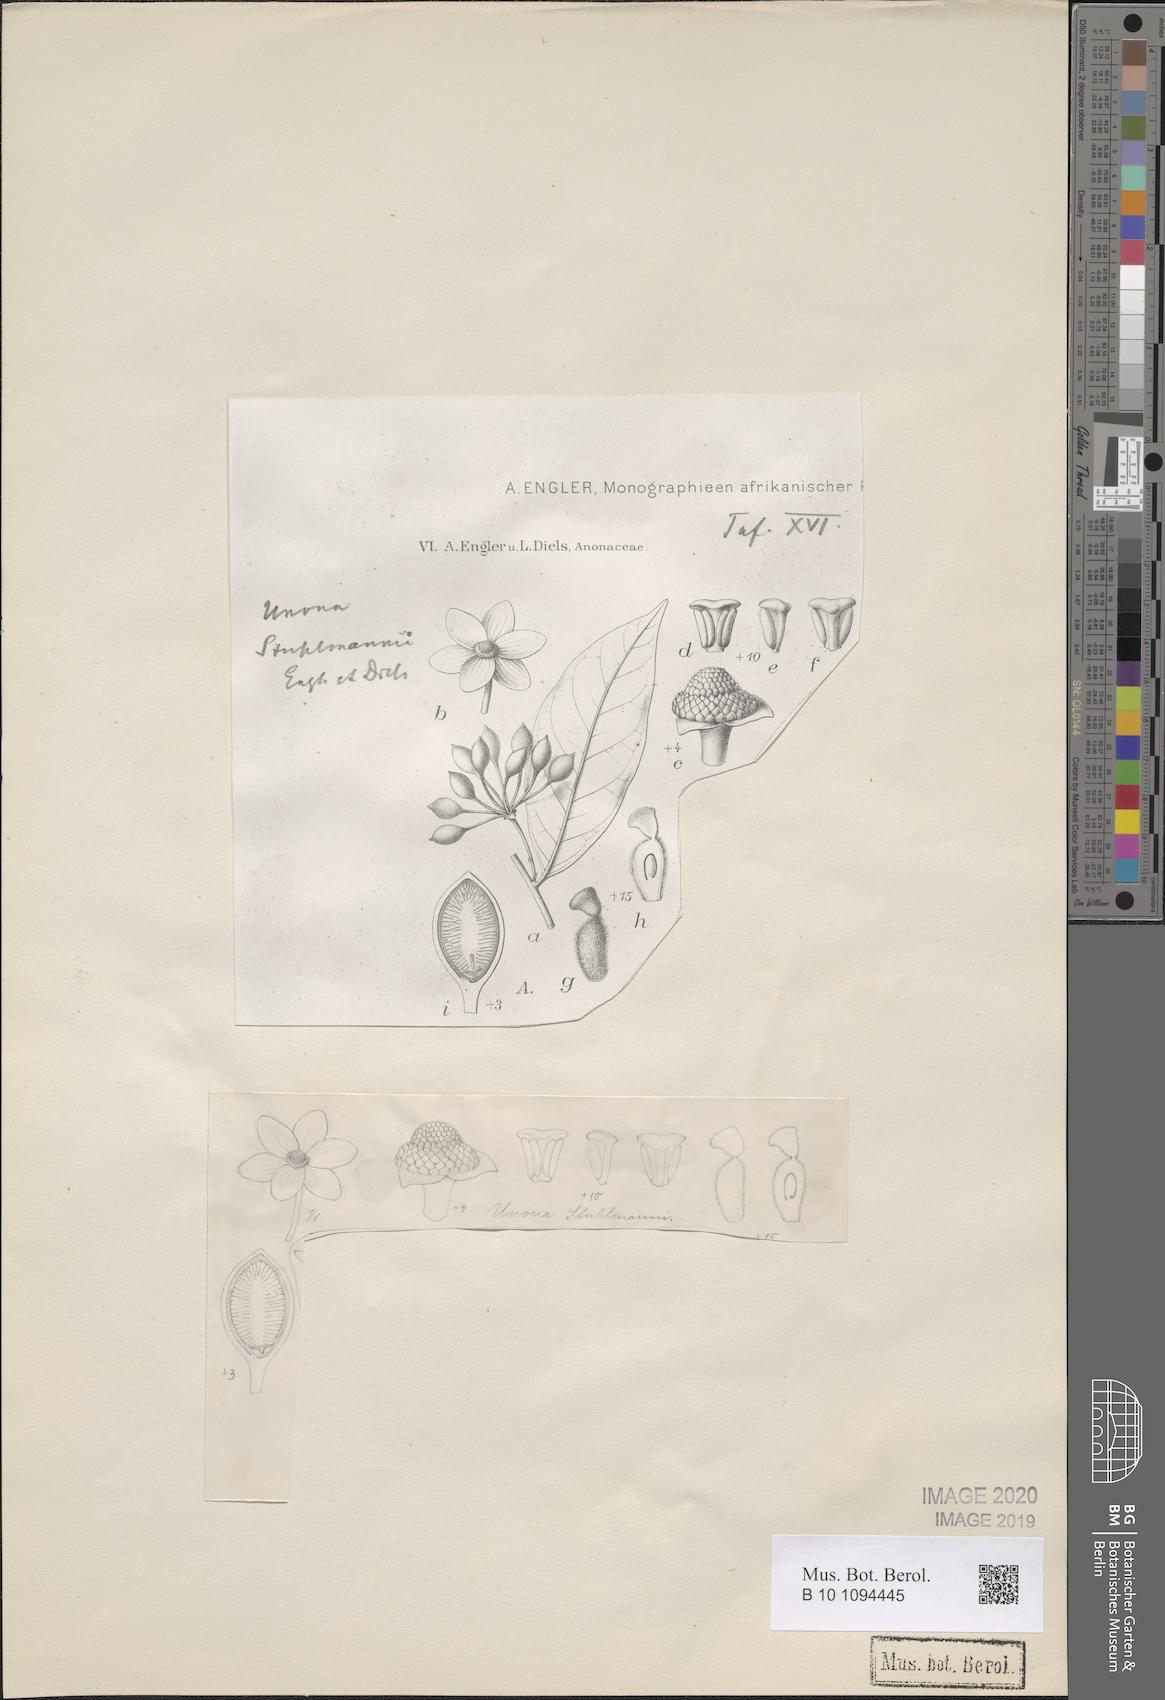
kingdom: Plantae
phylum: Tracheophyta
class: Magnoliopsida
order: Magnoliales
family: Annonaceae
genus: Hubera
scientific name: Hubera stuhlmannii
